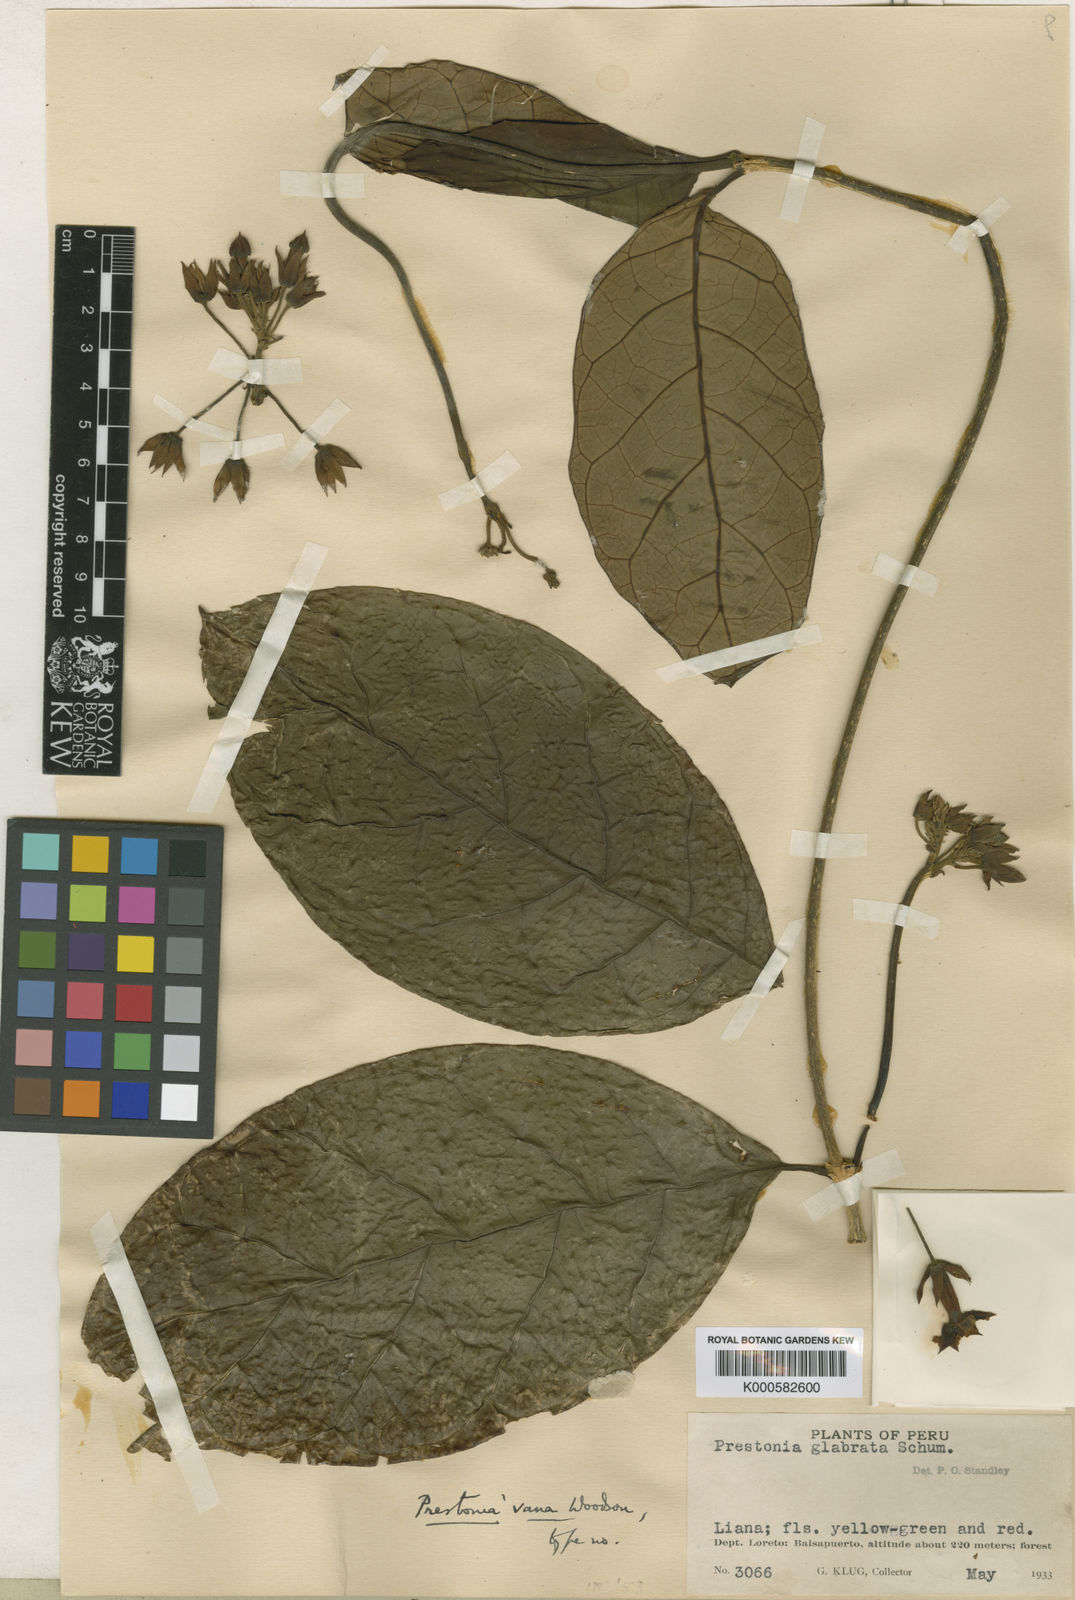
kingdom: Plantae
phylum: Tracheophyta
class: Magnoliopsida
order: Gentianales
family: Apocynaceae
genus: Prestonia
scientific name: Prestonia vana
